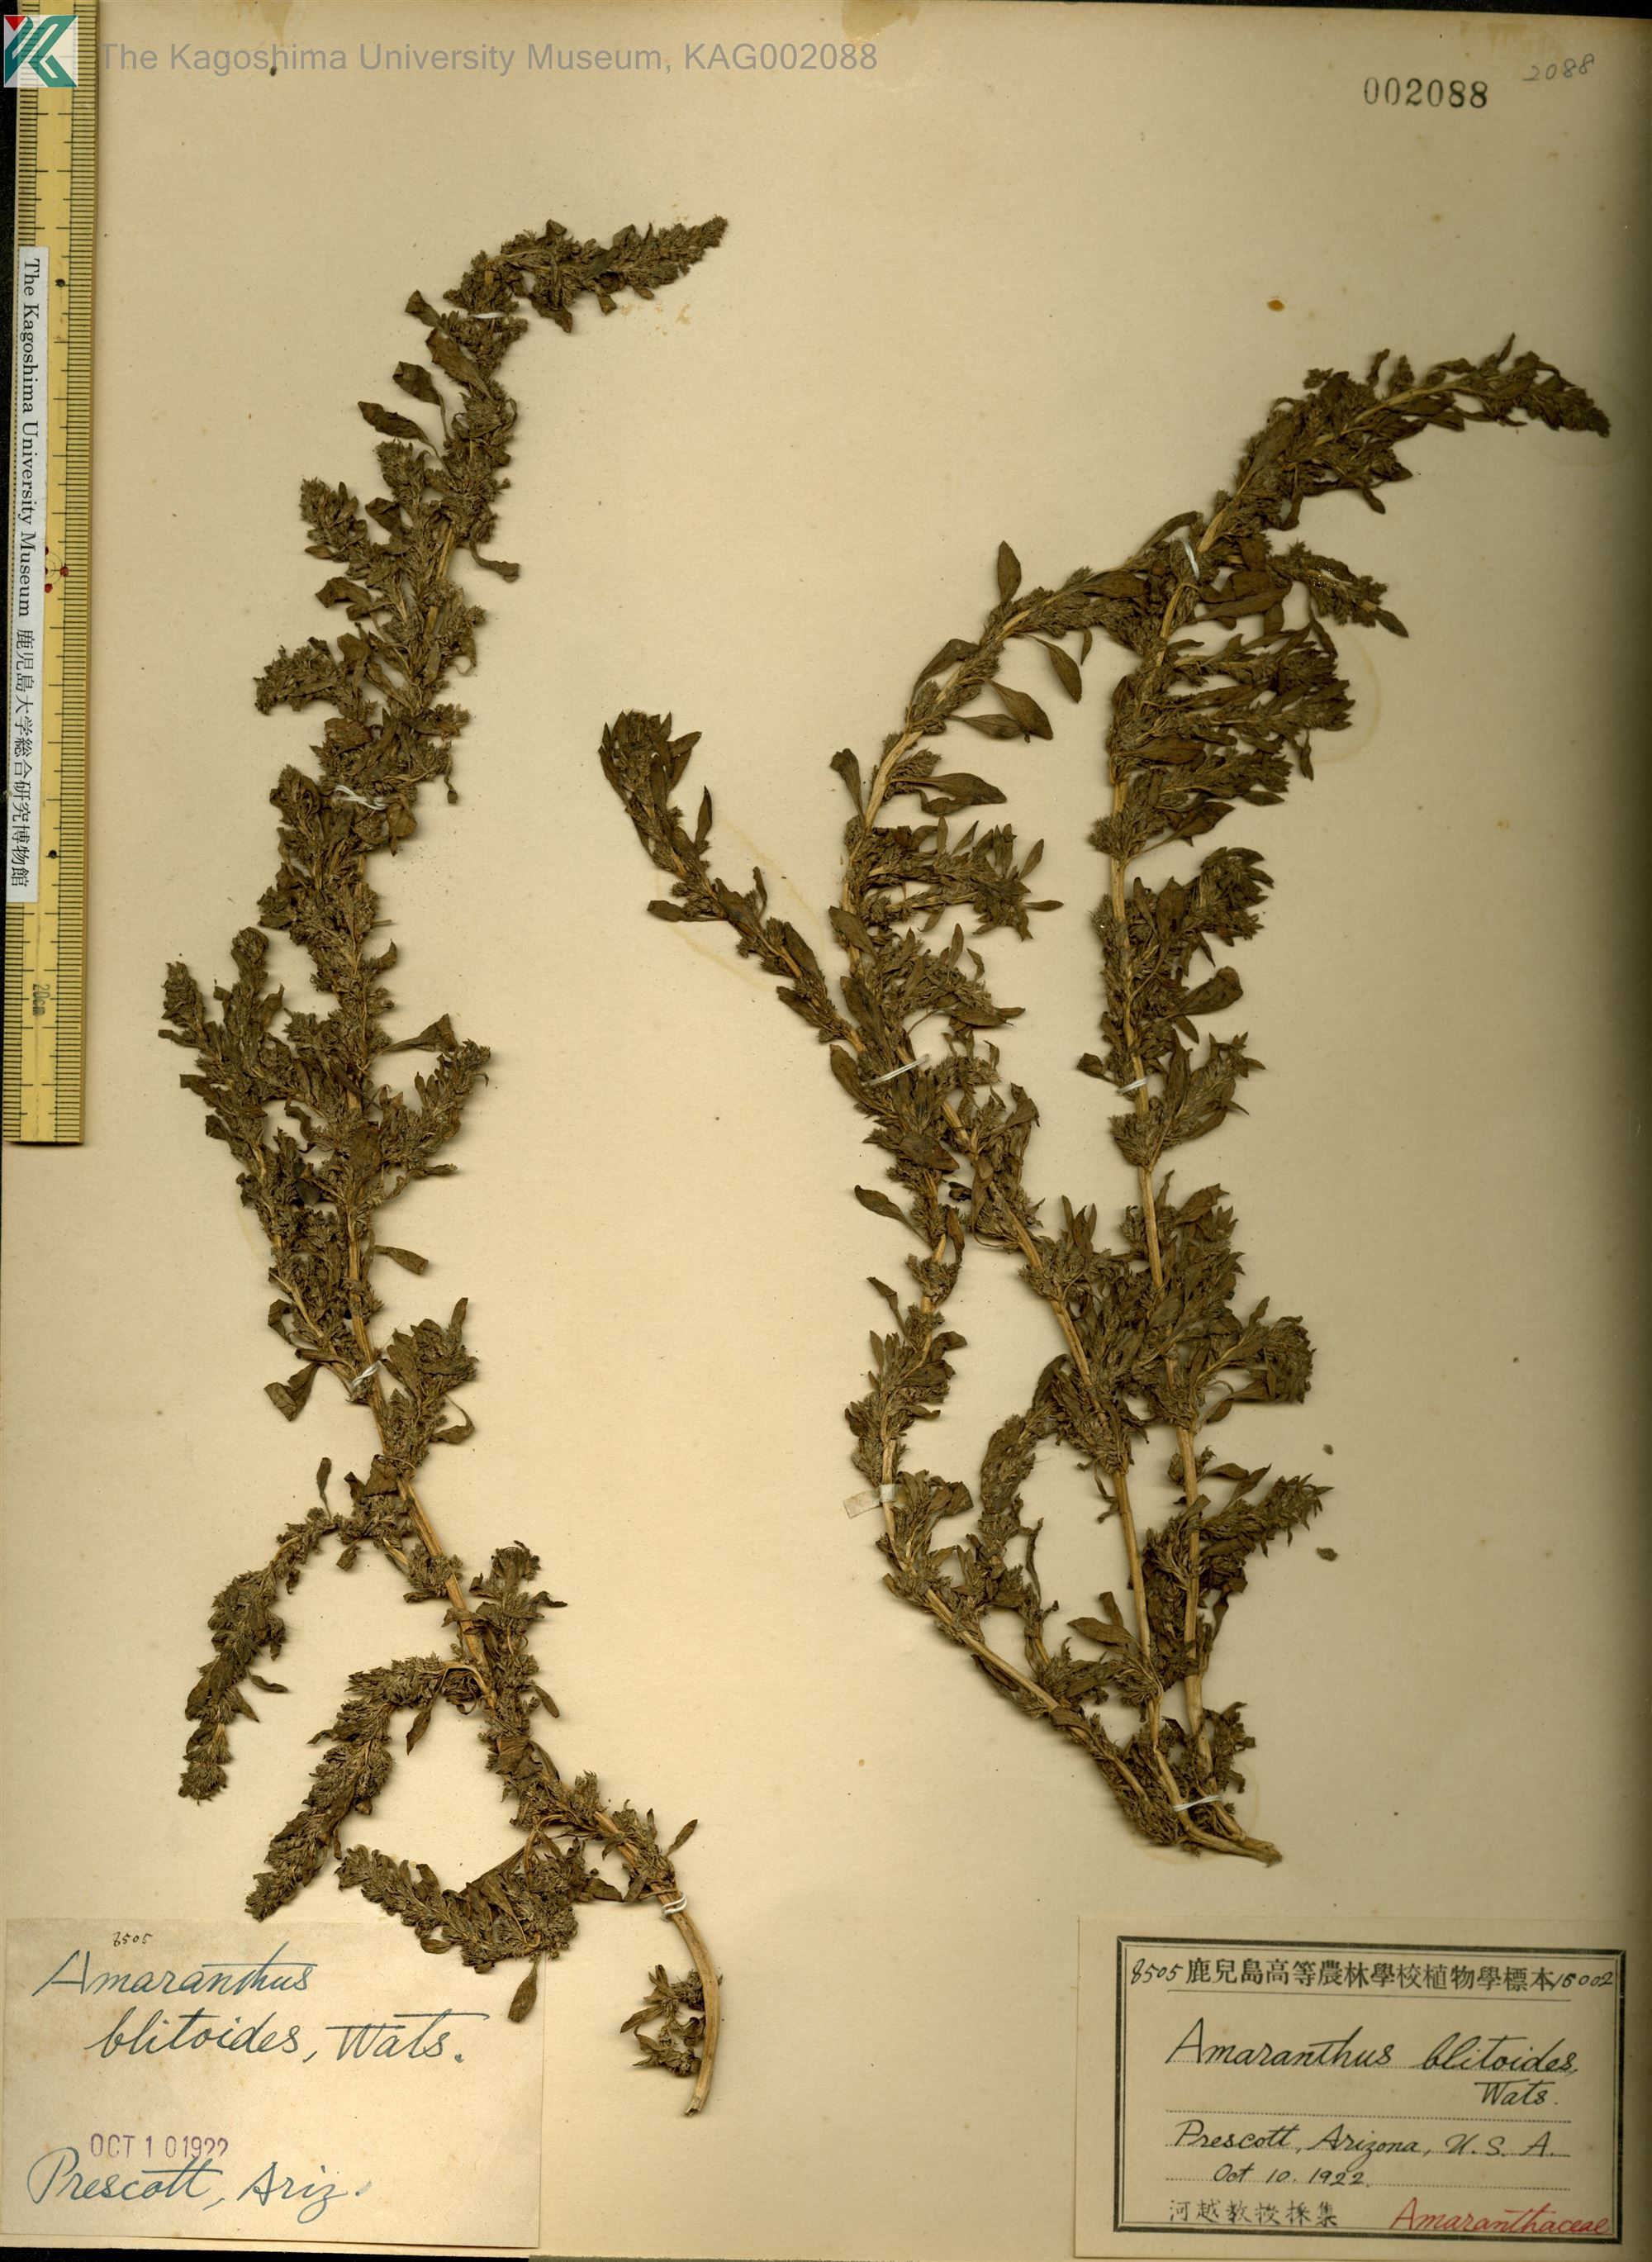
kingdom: Plantae
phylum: Tracheophyta
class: Magnoliopsida
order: Caryophyllales
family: Amaranthaceae
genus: Amaranthus
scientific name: Amaranthus blitoides
